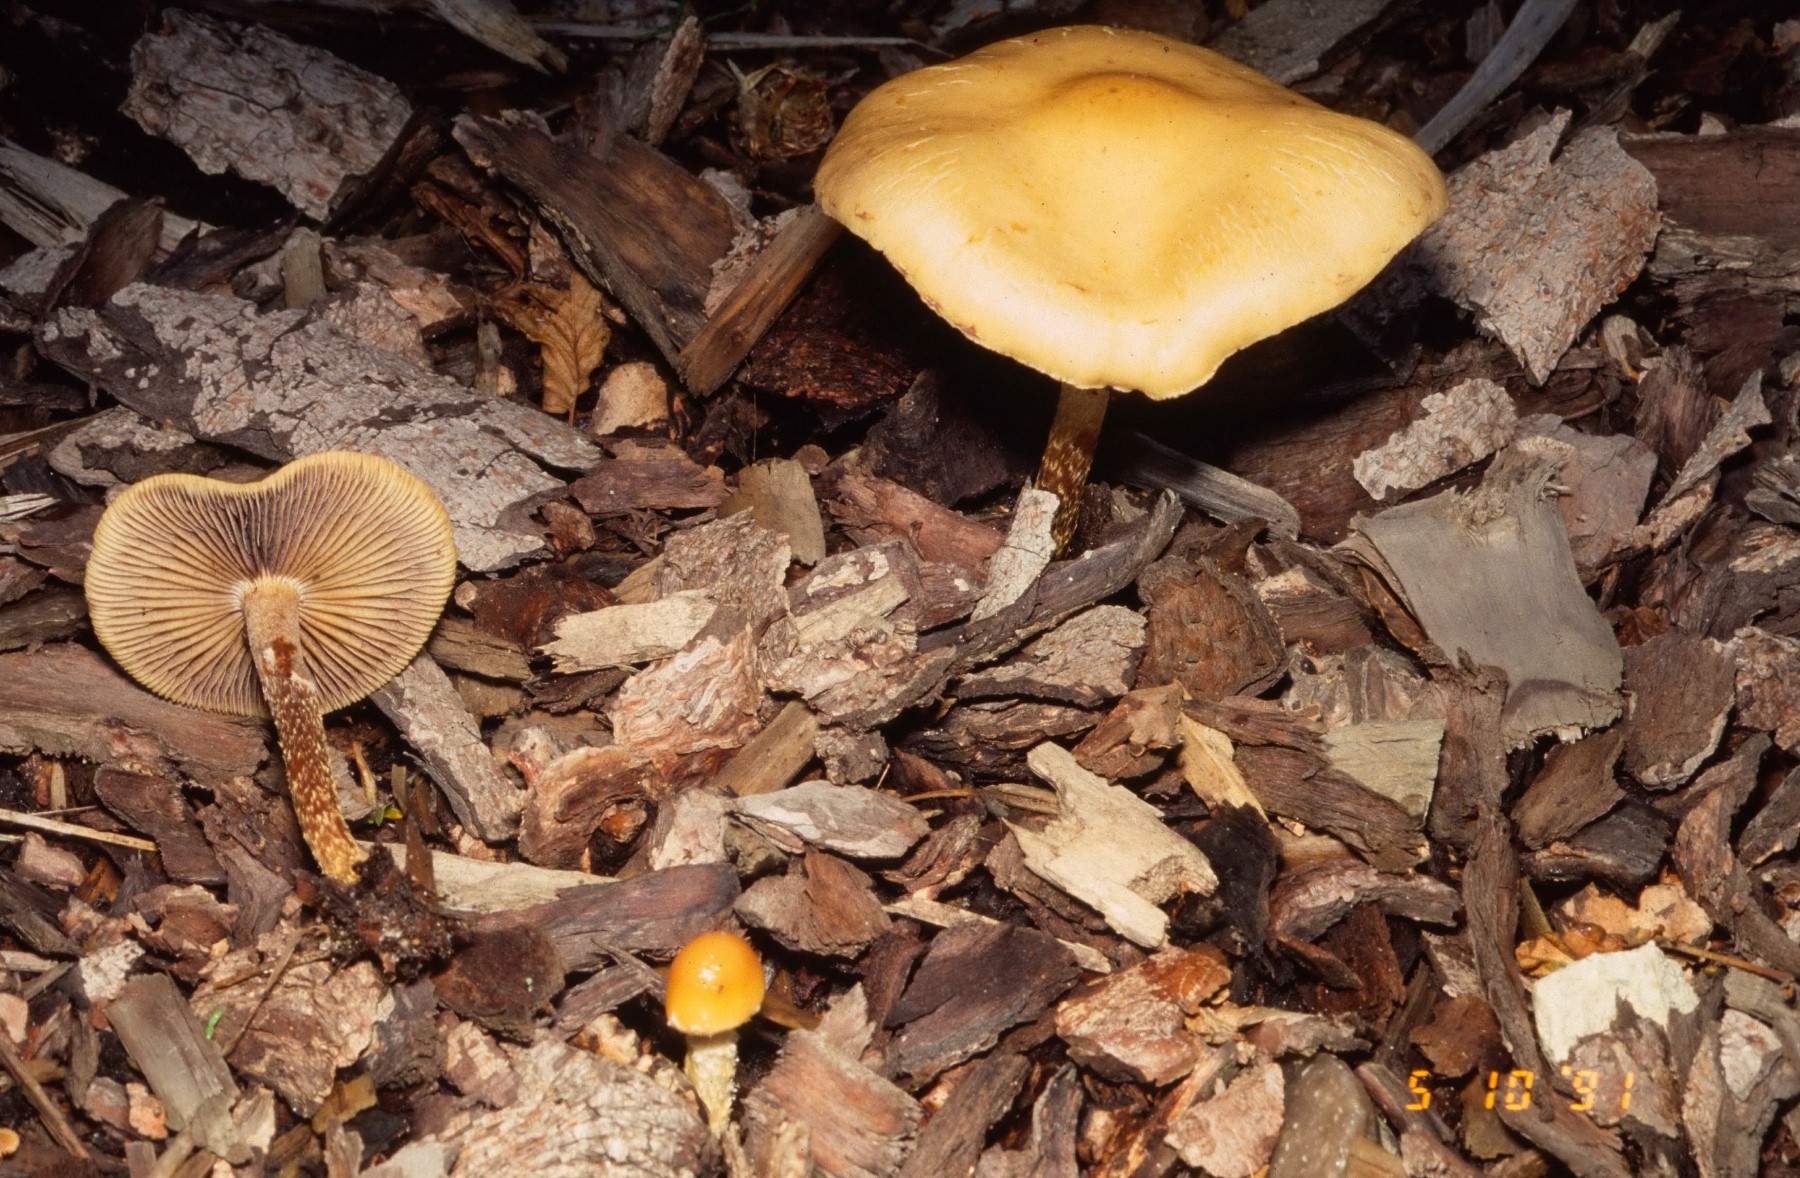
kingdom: Fungi
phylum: Basidiomycota
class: Agaricomycetes
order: Agaricales
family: Strophariaceae
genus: Leratiomyces
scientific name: Leratiomyces percevalii
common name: træflis-bredblad
